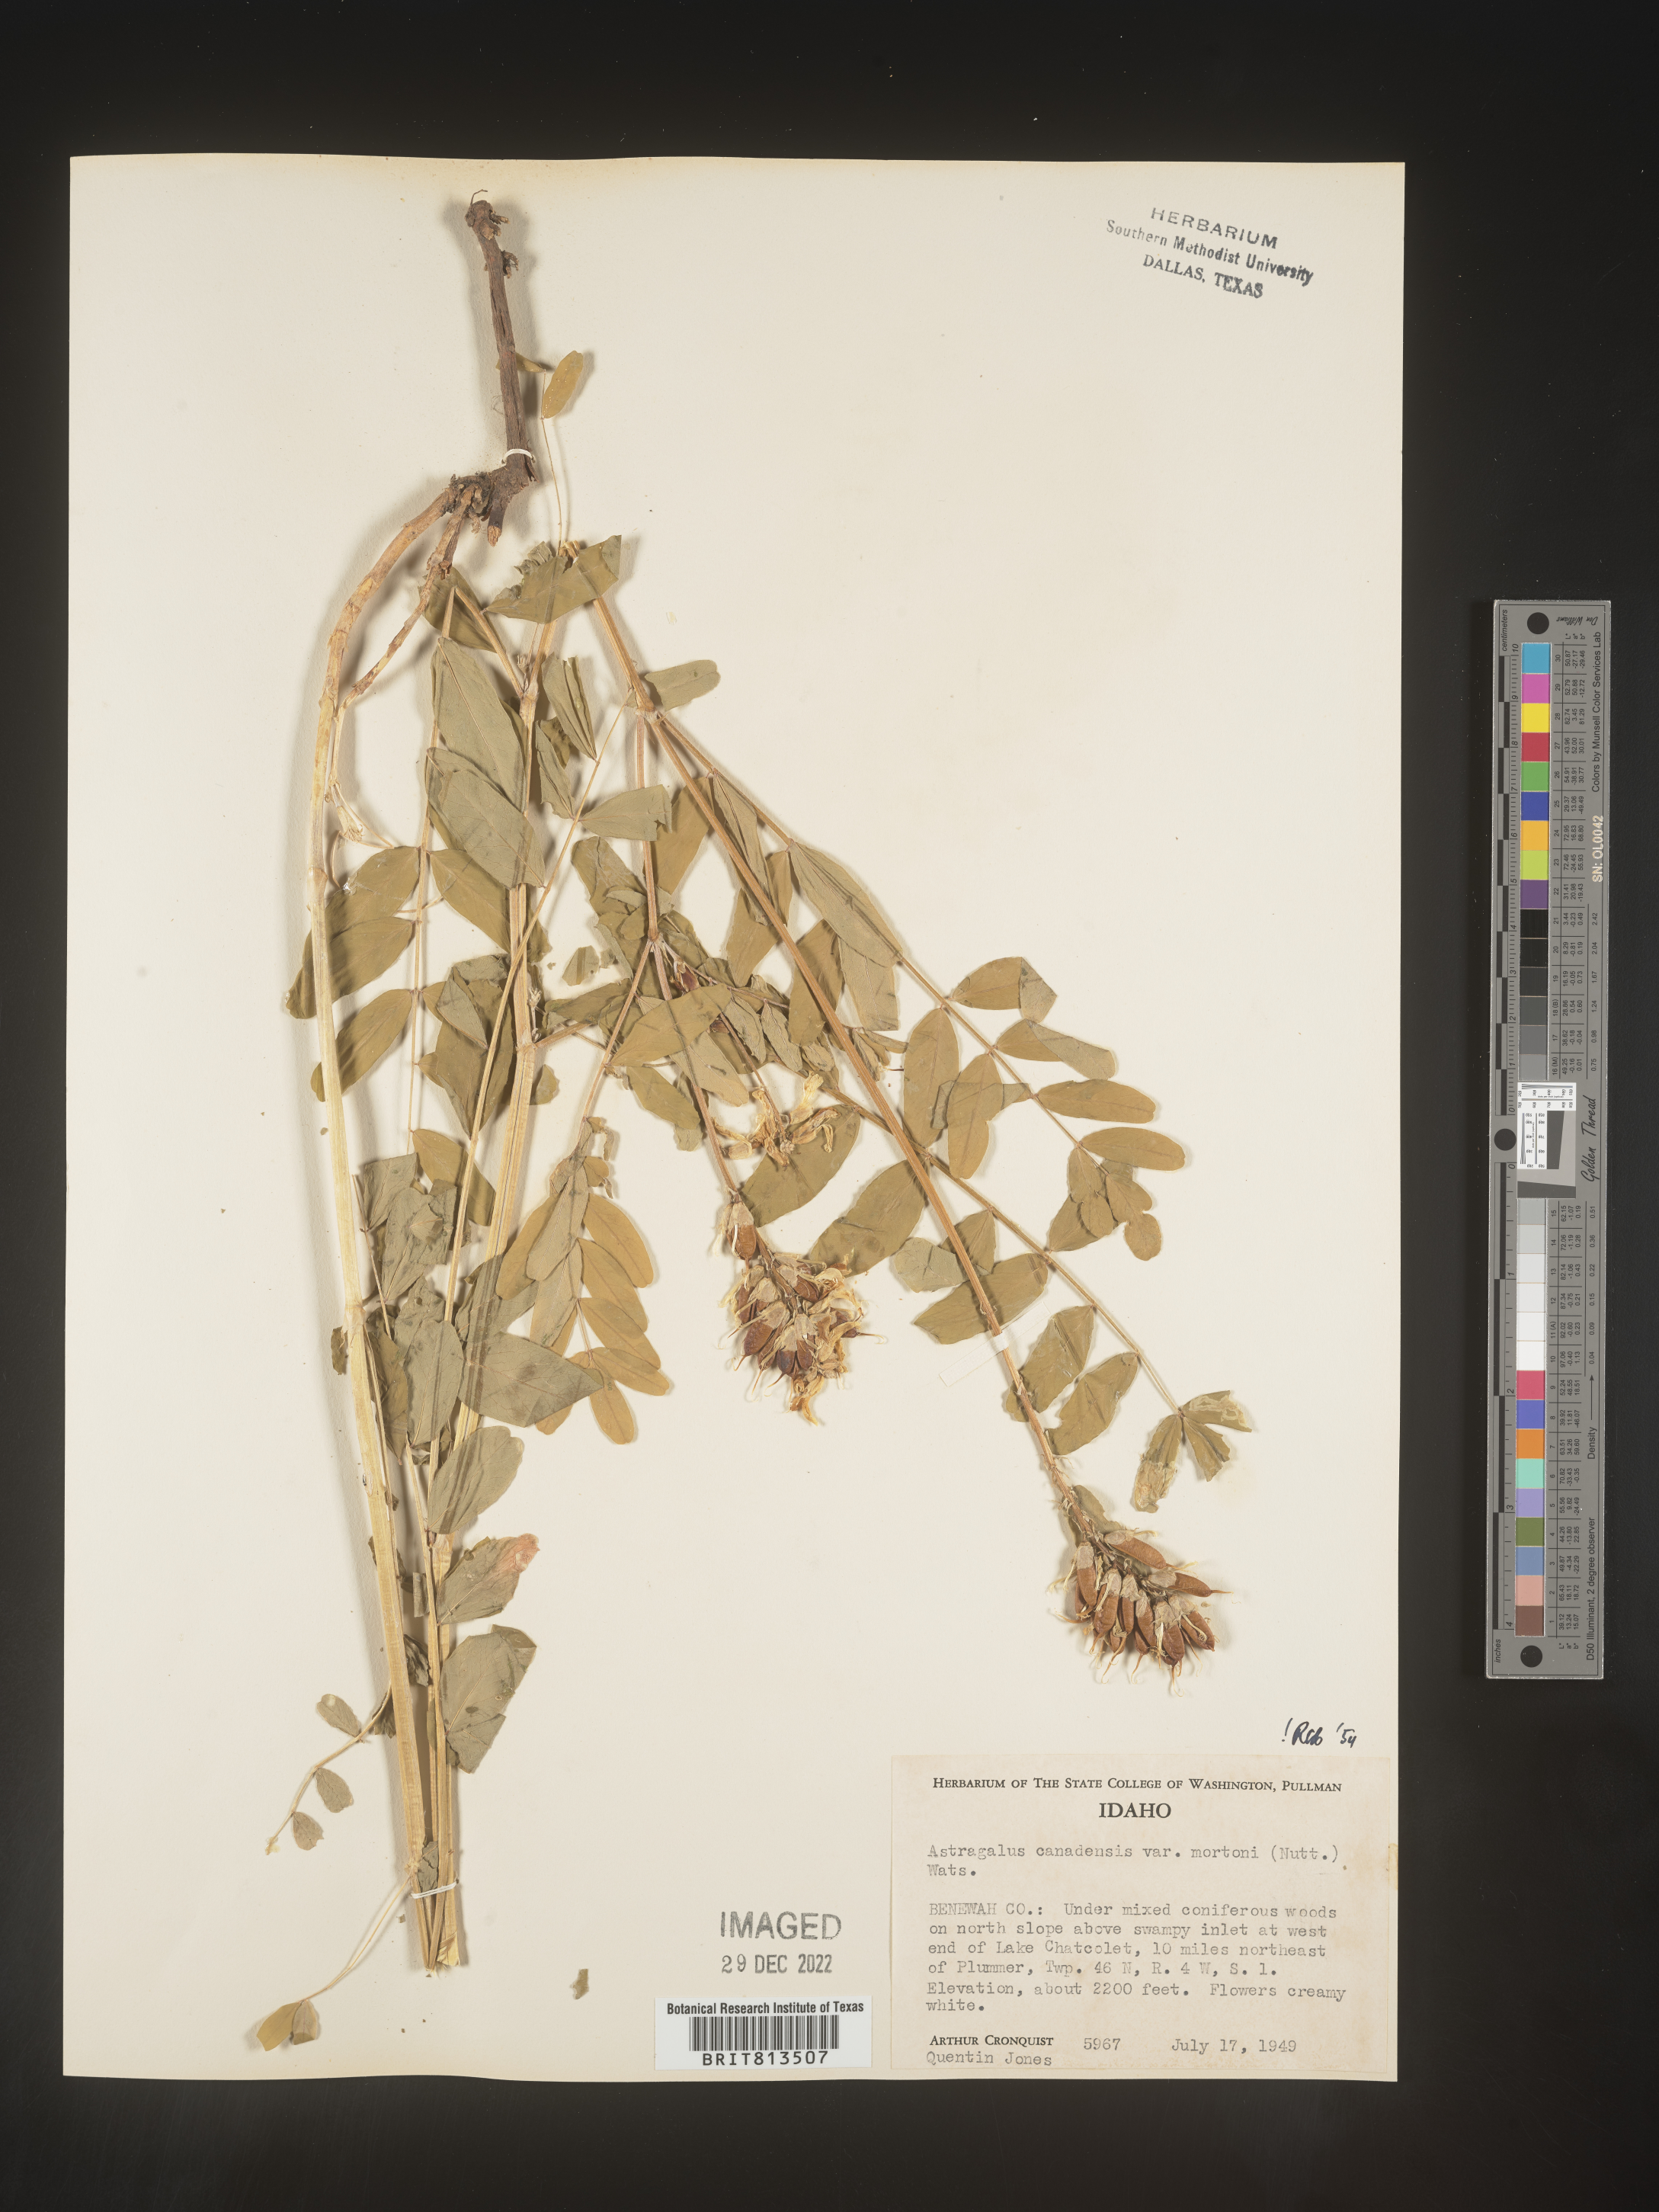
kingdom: Plantae
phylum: Tracheophyta
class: Magnoliopsida
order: Fabales
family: Fabaceae
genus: Astragalus
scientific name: Astragalus canadensis
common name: Canada milk-vetch
